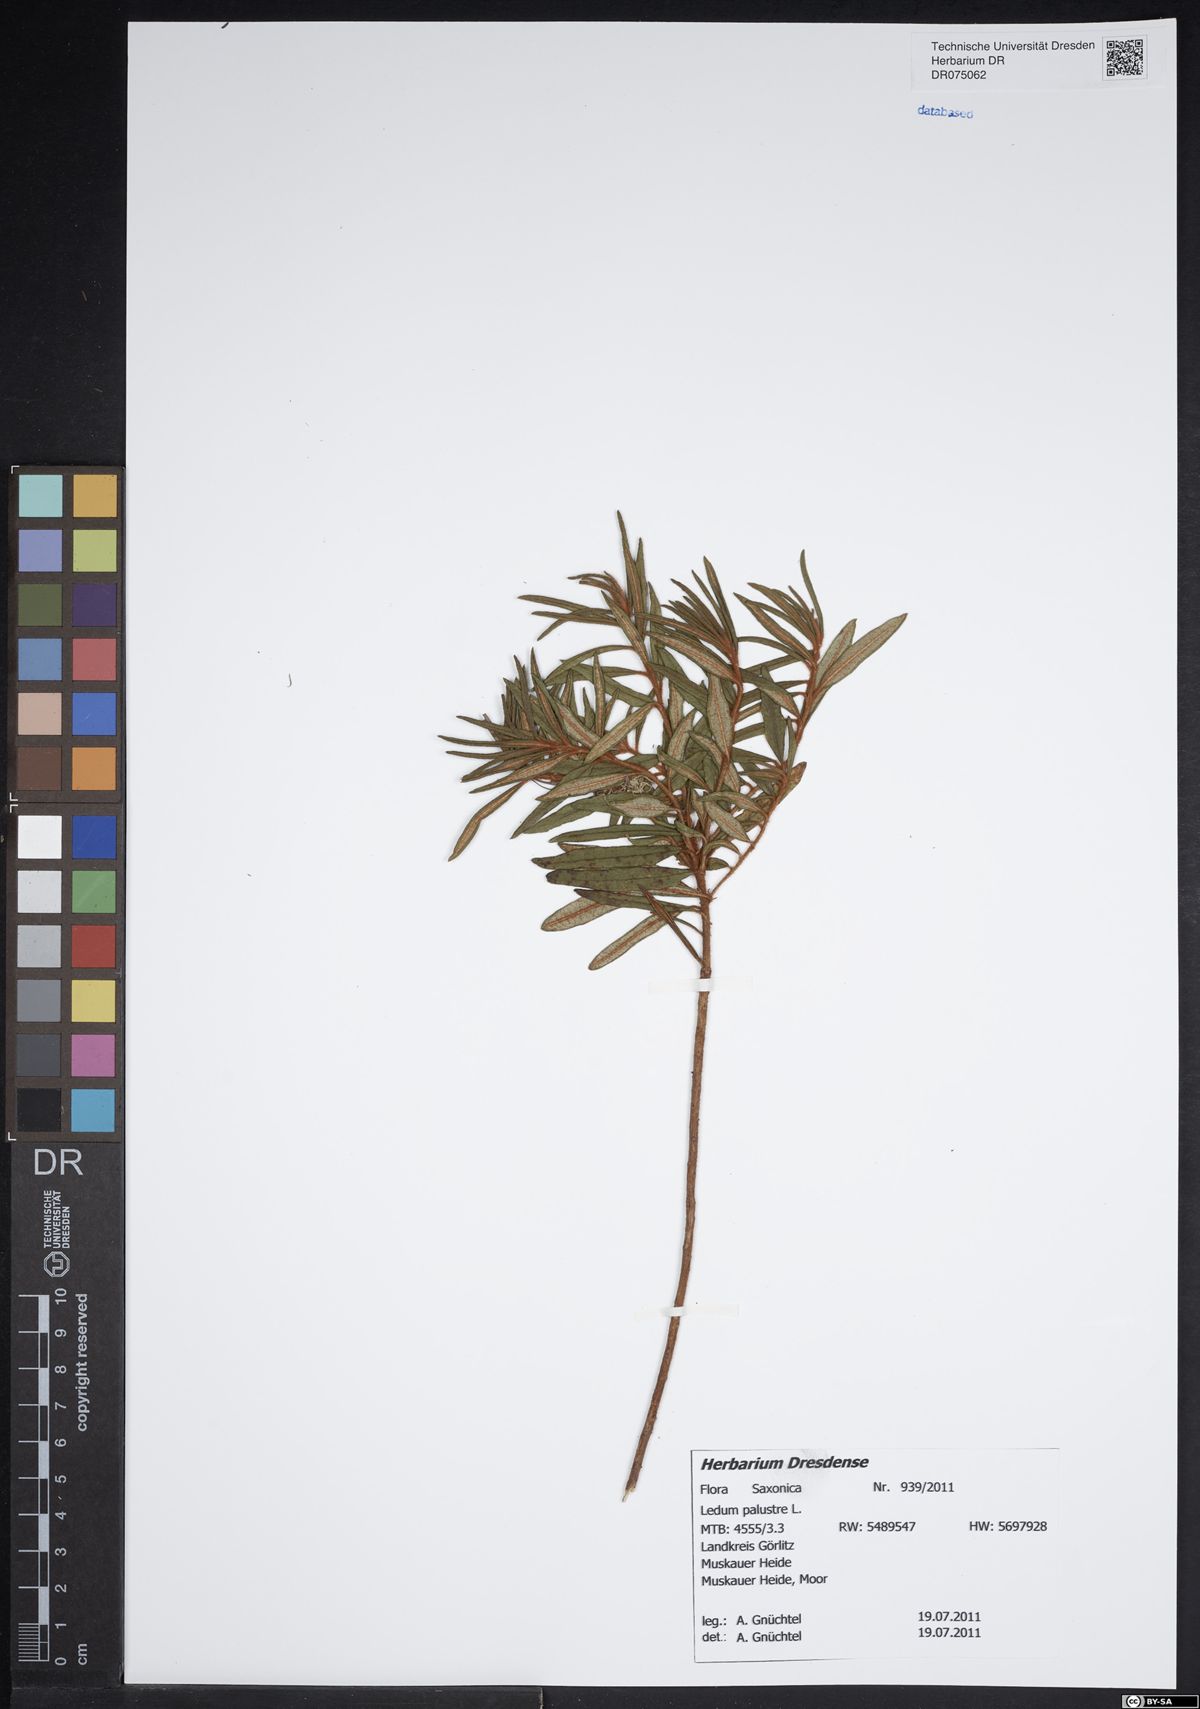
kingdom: Plantae
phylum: Tracheophyta
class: Magnoliopsida
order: Ericales
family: Ericaceae
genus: Rhododendron
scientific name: Rhododendron tomentosum
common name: Marsh labrador tea
